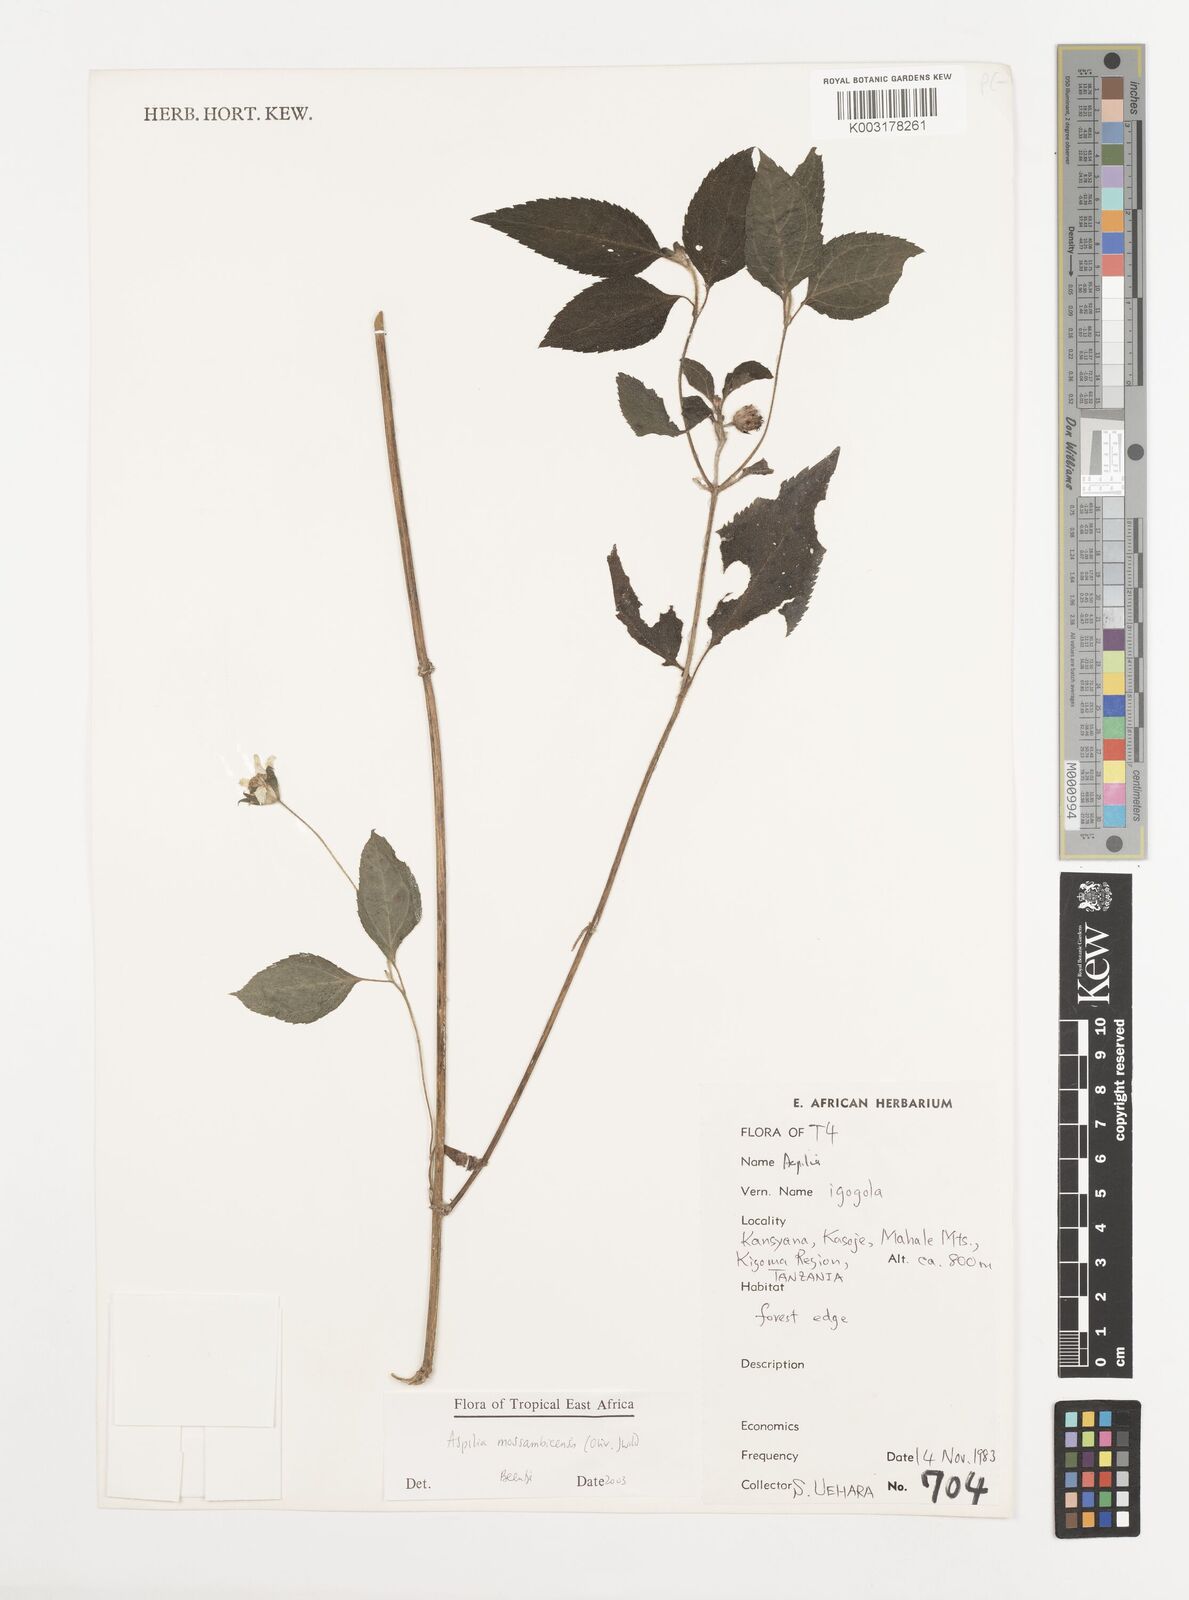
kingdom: Plantae
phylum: Tracheophyta
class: Magnoliopsida
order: Asterales
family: Asteraceae
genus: Aspilia
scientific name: Aspilia mossambicensis
